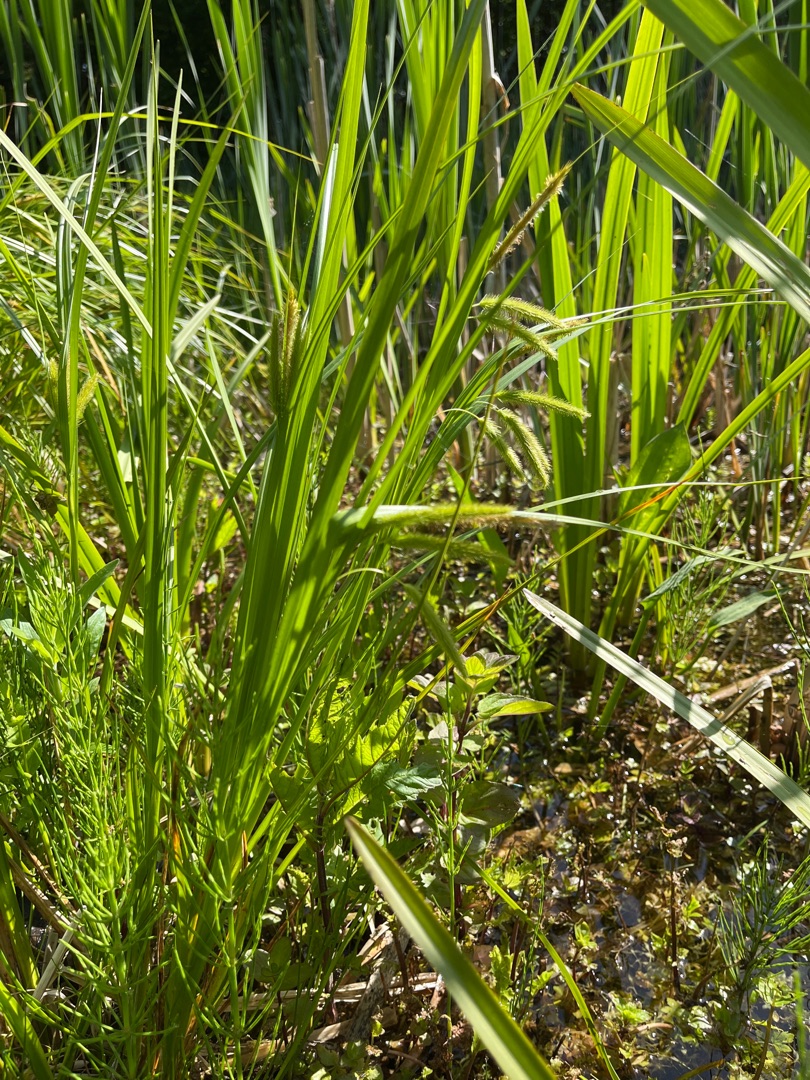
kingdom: Plantae
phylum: Tracheophyta
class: Liliopsida
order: Poales
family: Cyperaceae
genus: Carex
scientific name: Carex pseudocyperus
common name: Knippe-star
